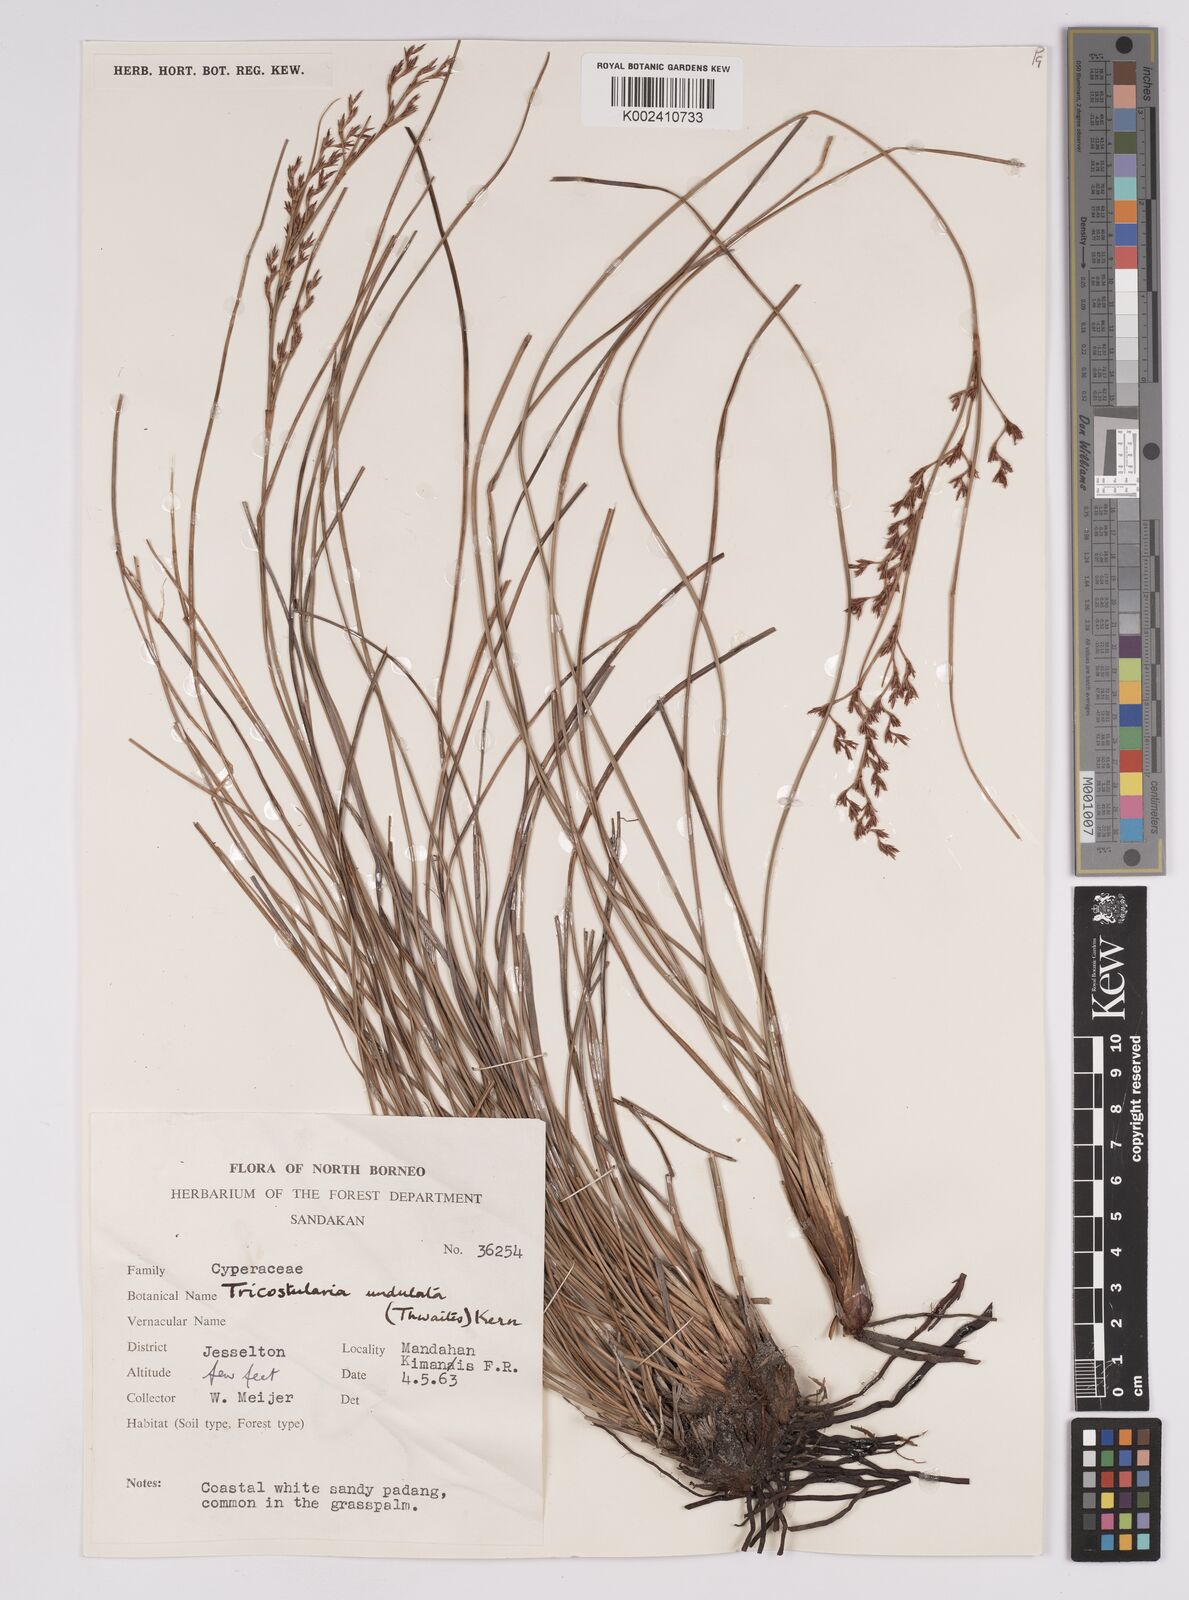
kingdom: Plantae
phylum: Tracheophyta
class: Liliopsida
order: Poales
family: Cyperaceae
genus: Anthelepis
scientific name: Anthelepis undulata
